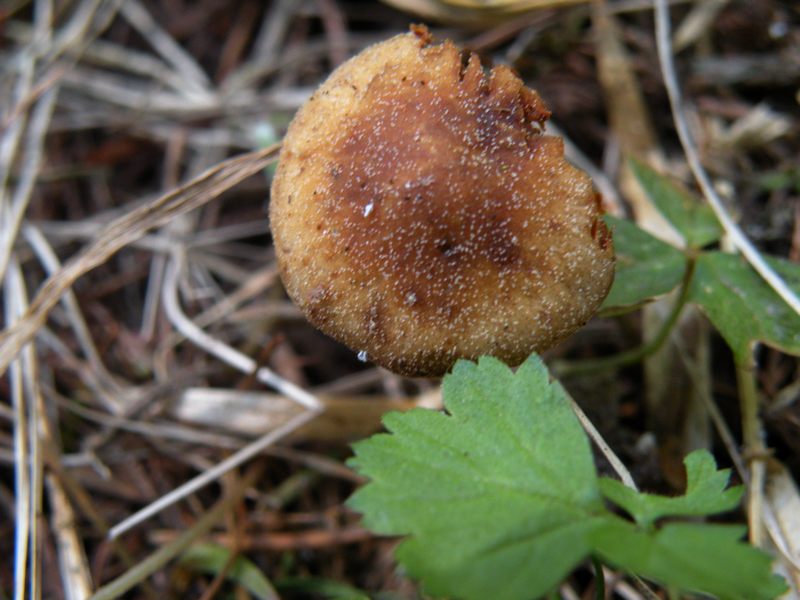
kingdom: Fungi
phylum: Basidiomycota
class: Agaricomycetes
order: Agaricales
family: Bolbitiaceae
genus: Conocybe
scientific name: Conocybe aporos
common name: tidlig dansehat
